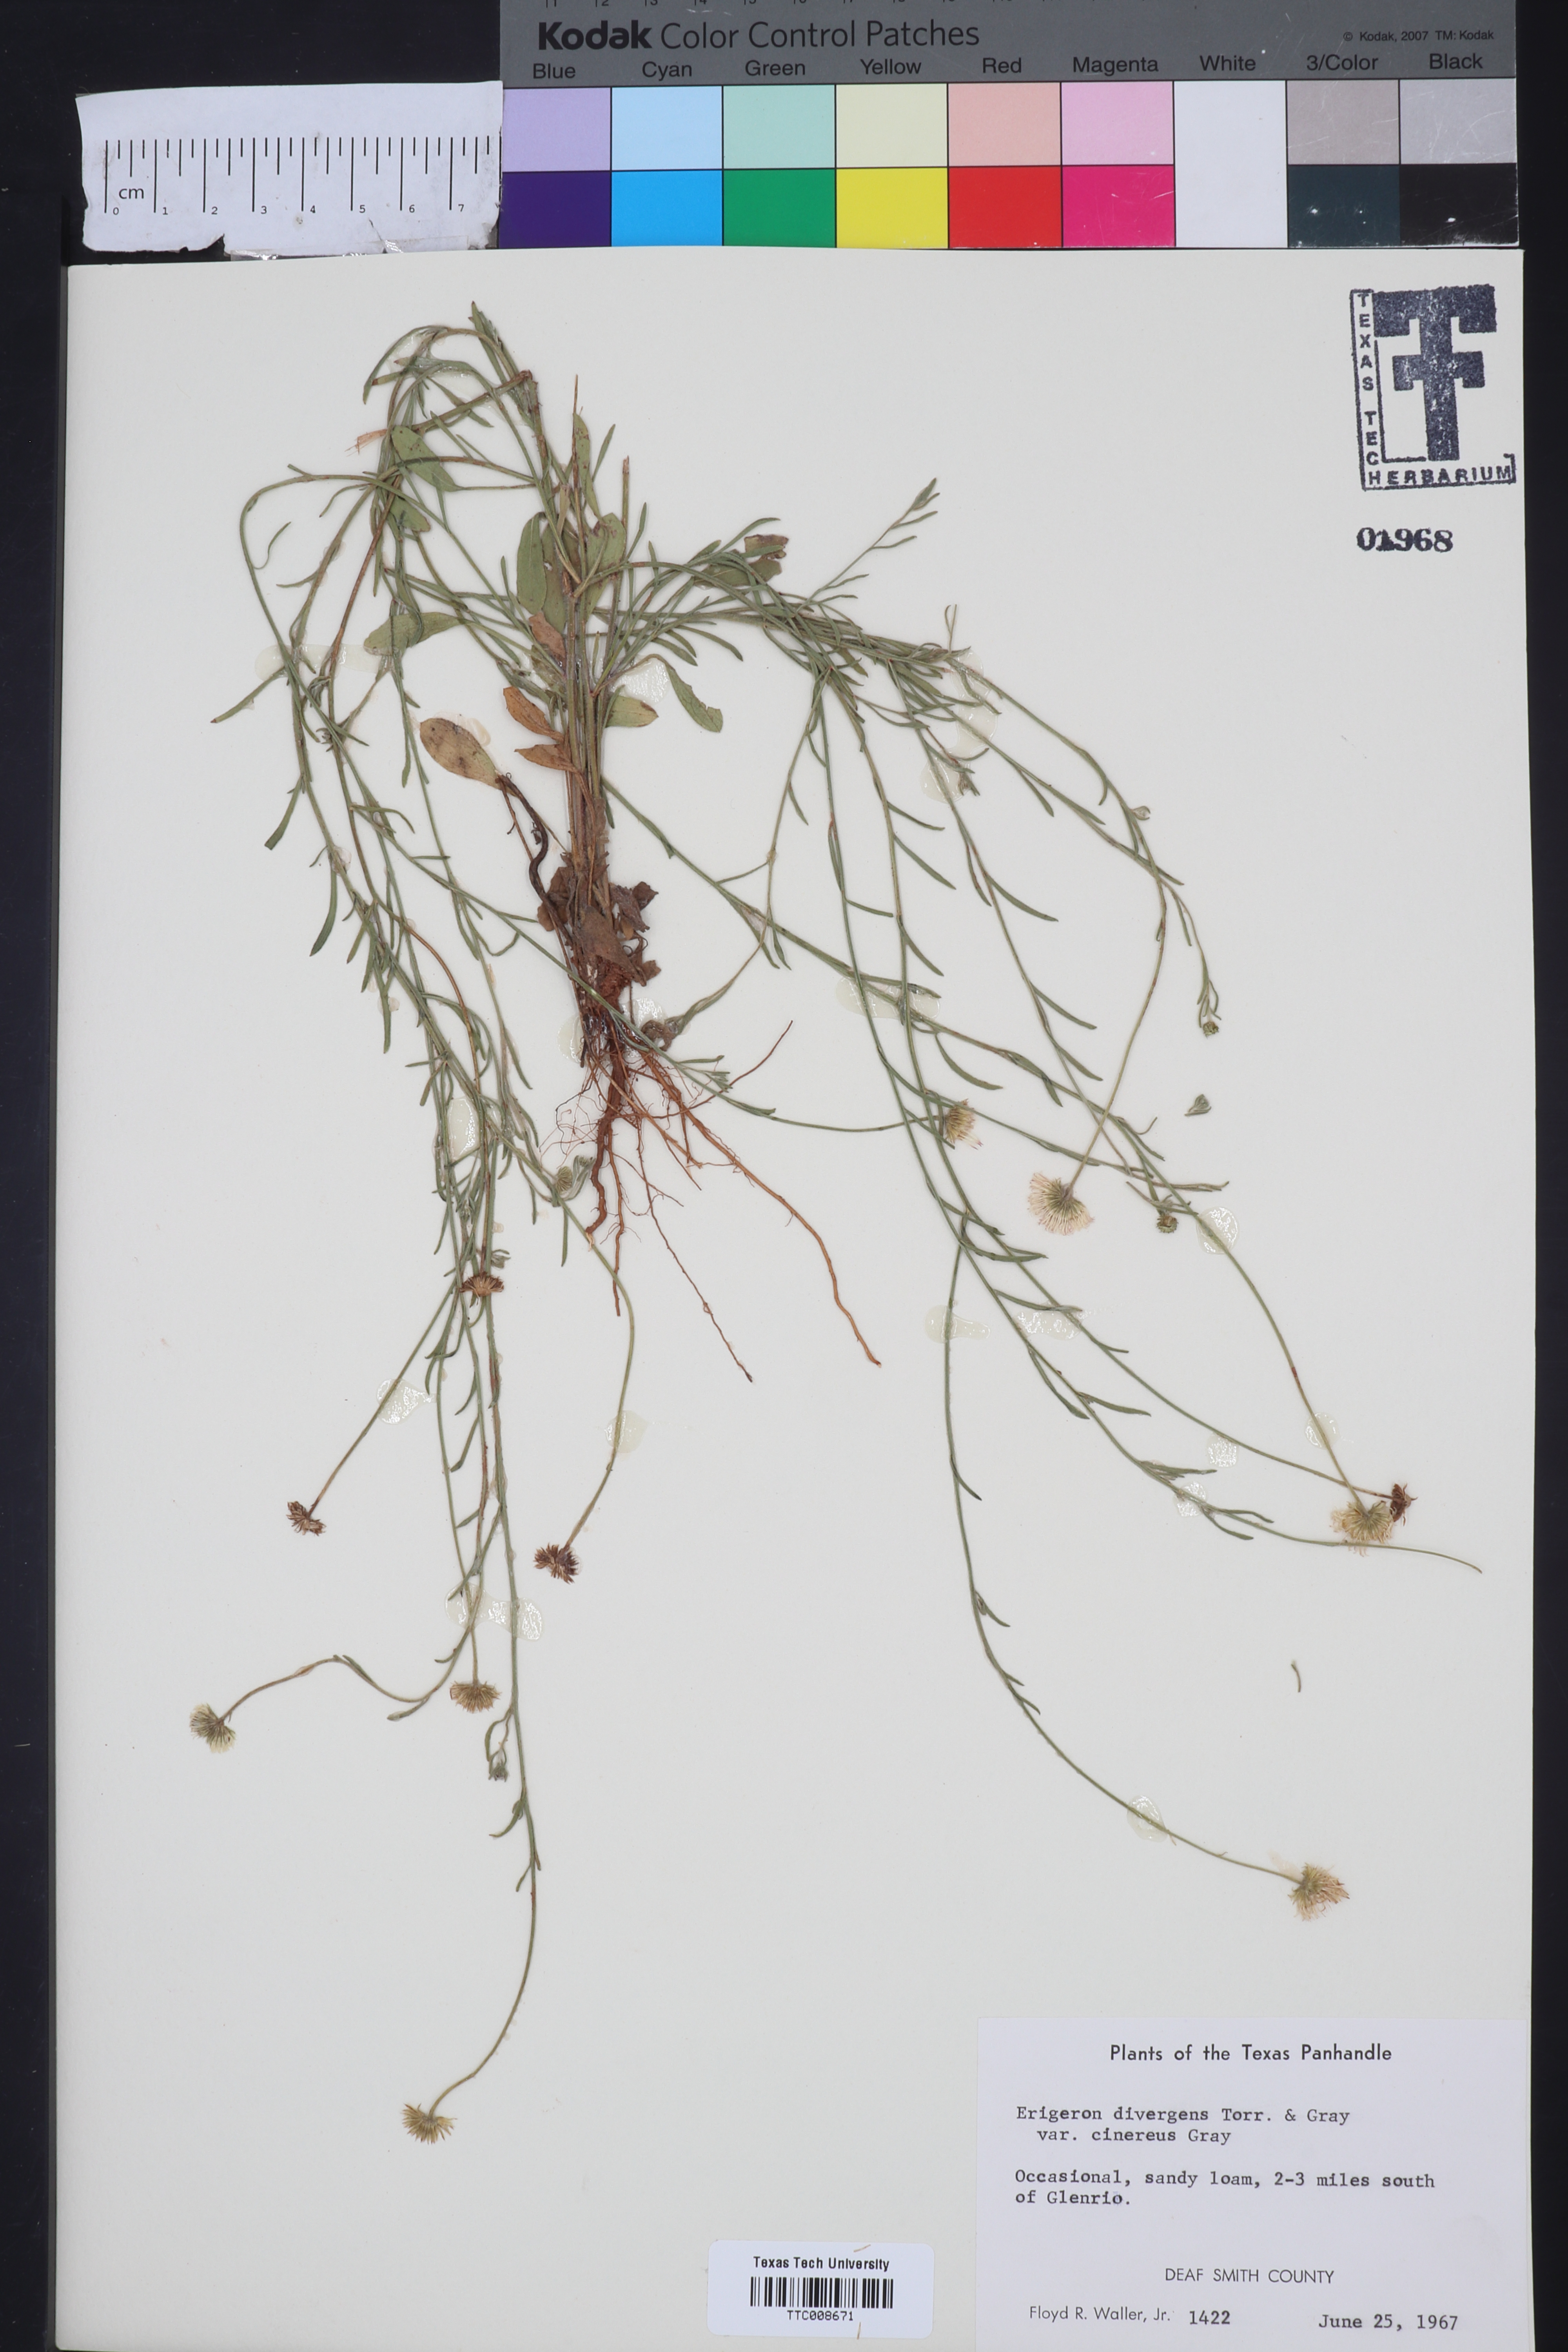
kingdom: Plantae
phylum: Tracheophyta
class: Magnoliopsida
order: Asterales
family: Asteraceae
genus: Erigeron
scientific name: Erigeron tracyi
